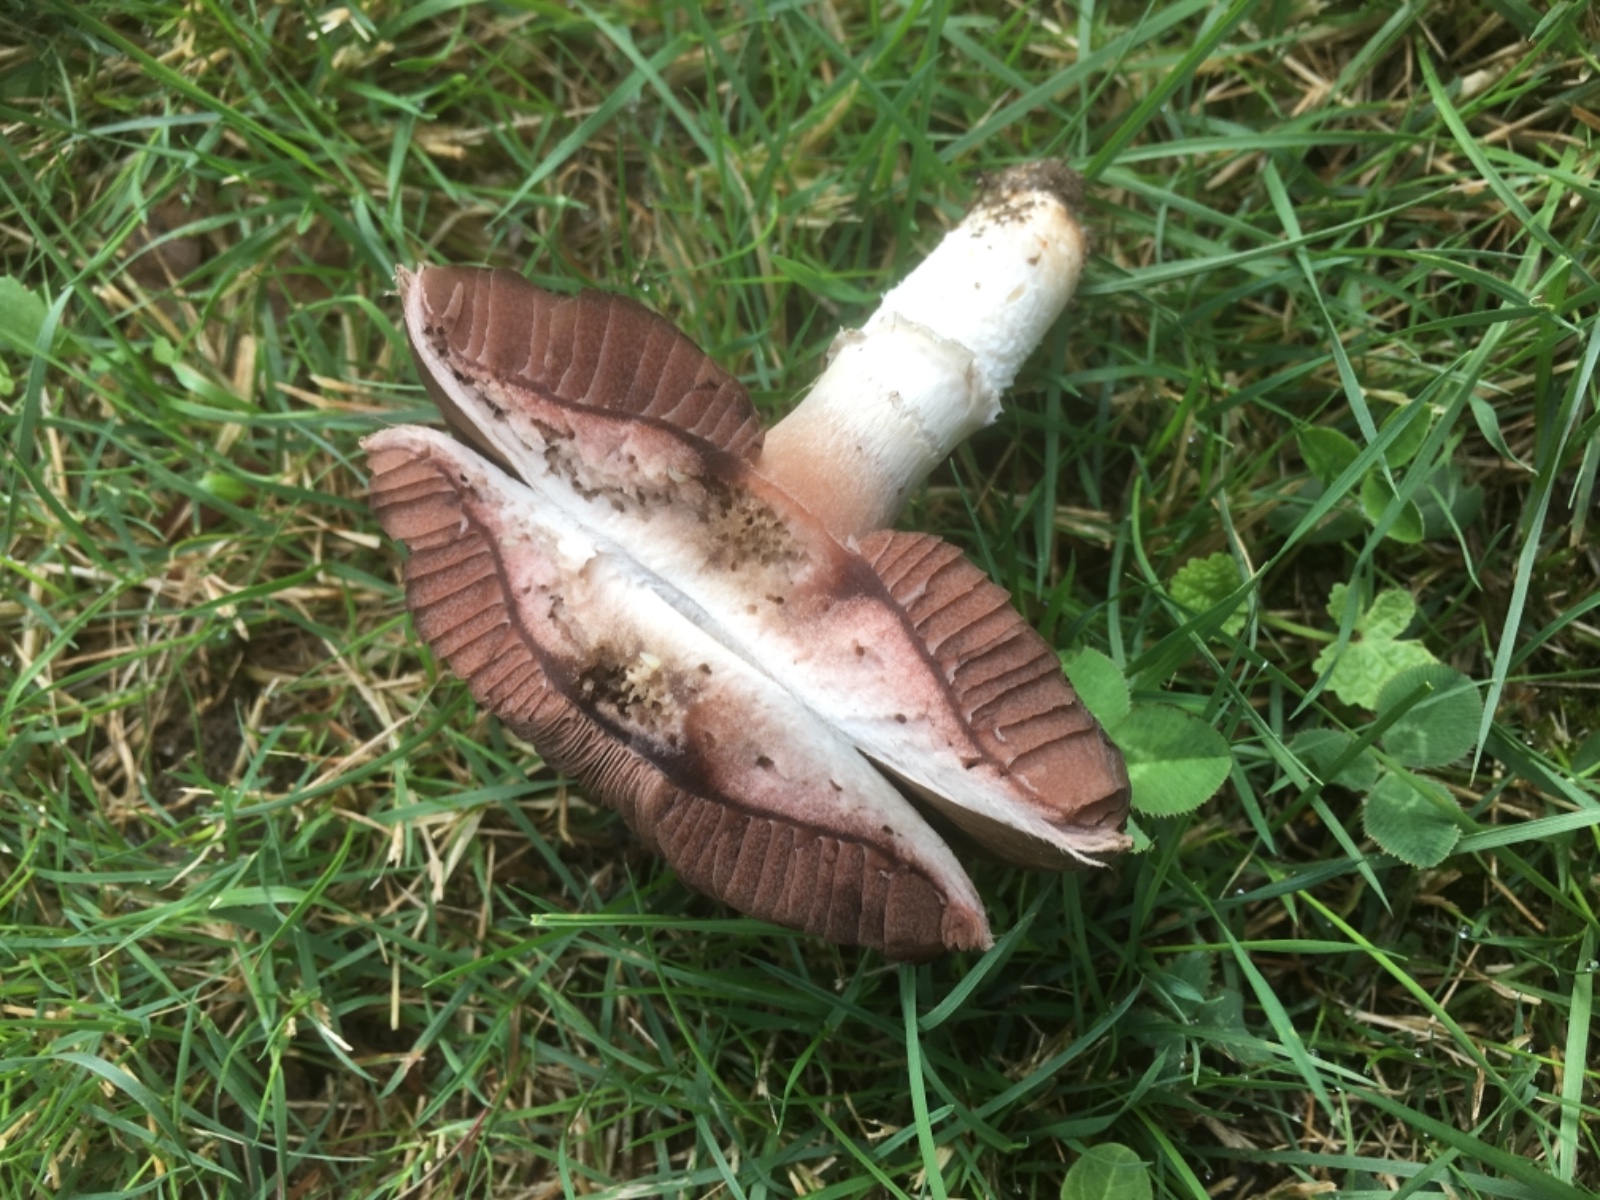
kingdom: Fungi
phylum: Basidiomycota
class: Agaricomycetes
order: Agaricales
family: Agaricaceae
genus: Agaricus
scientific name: Agaricus campestris
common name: mark-champignon
